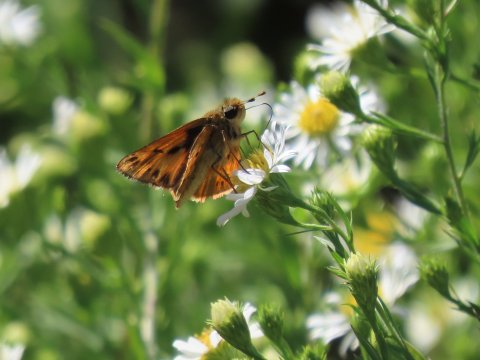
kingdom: Animalia
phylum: Arthropoda
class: Insecta
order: Lepidoptera
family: Hesperiidae
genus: Hylephila
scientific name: Hylephila phyleus
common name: Fiery Skipper
